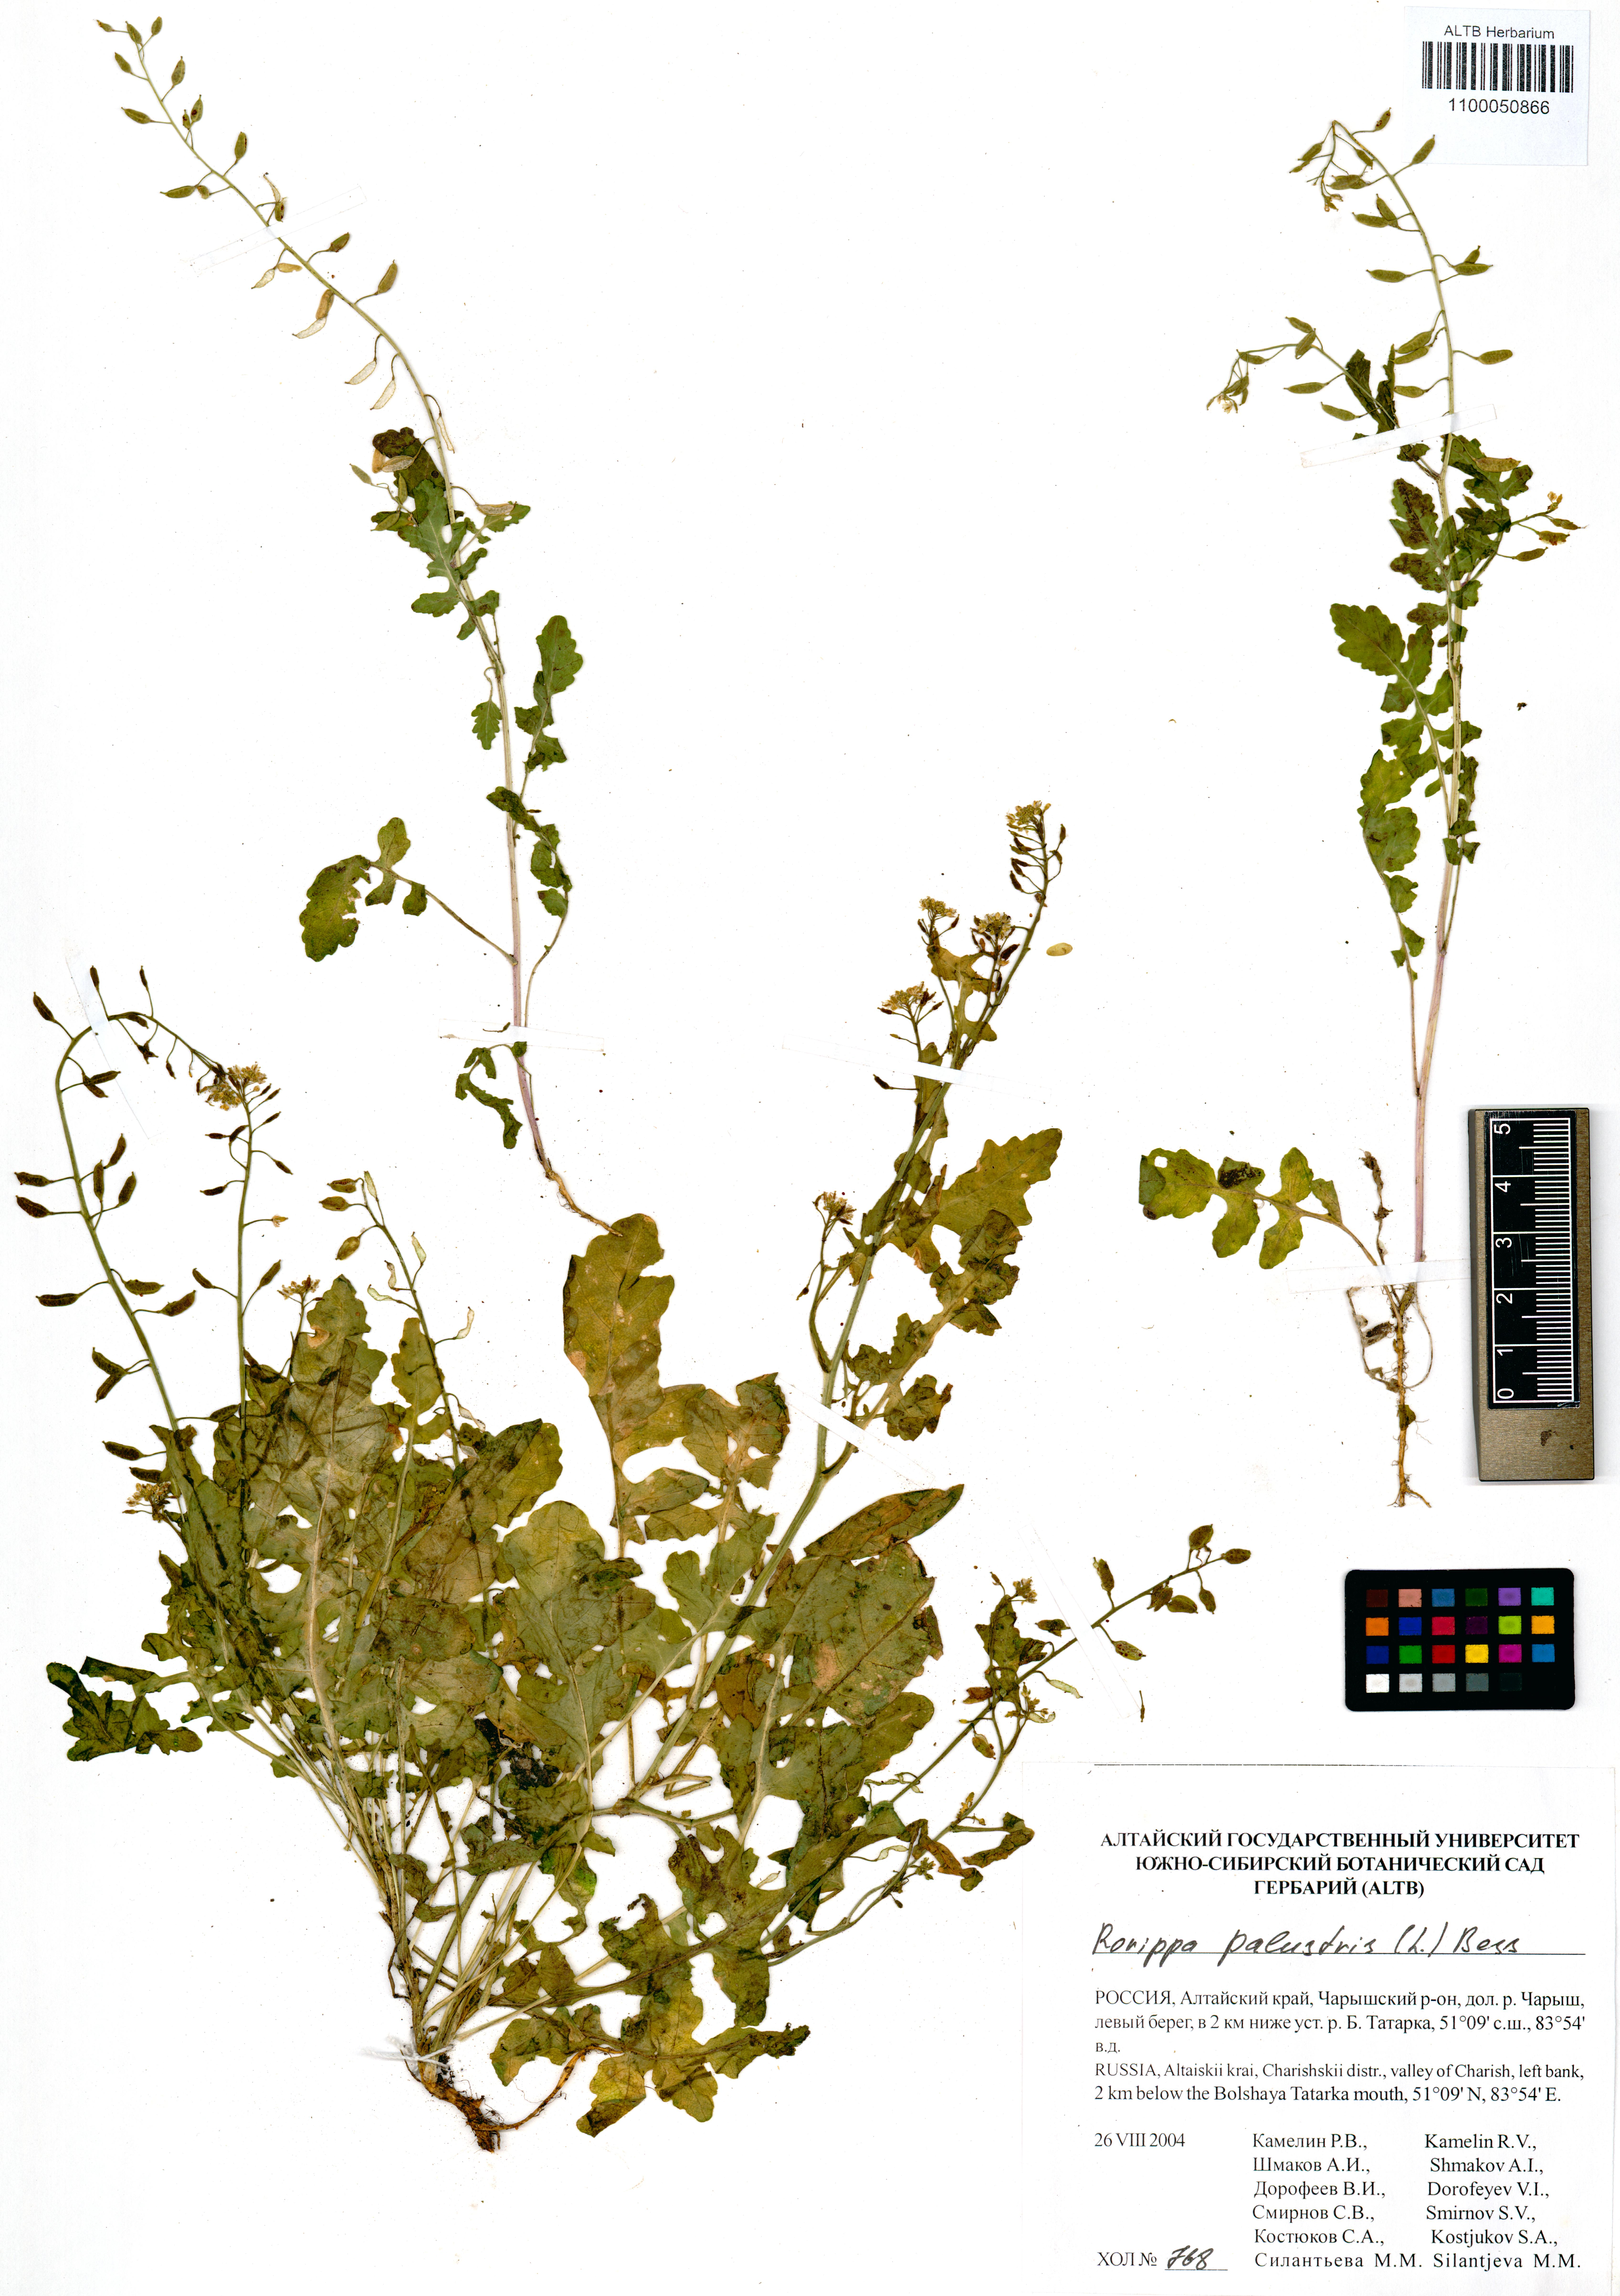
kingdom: Plantae
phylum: Tracheophyta
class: Magnoliopsida
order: Brassicales
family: Brassicaceae
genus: Rorippa
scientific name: Rorippa palustris
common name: Marsh yellow-cress
